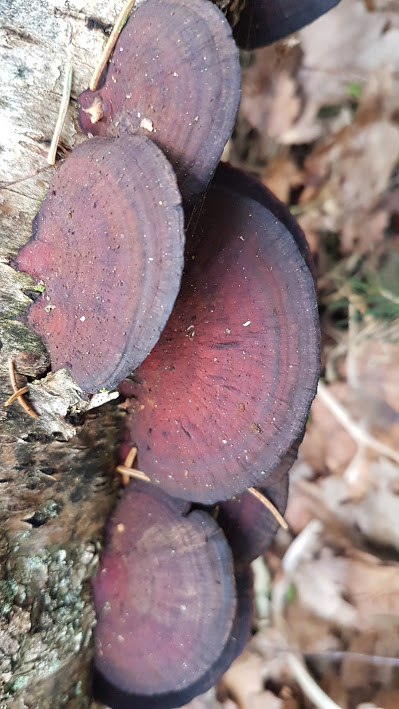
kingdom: Fungi
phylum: Basidiomycota
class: Agaricomycetes
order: Polyporales
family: Polyporaceae
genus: Daedaleopsis
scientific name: Daedaleopsis confragosa
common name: rødmende læderporesvamp
